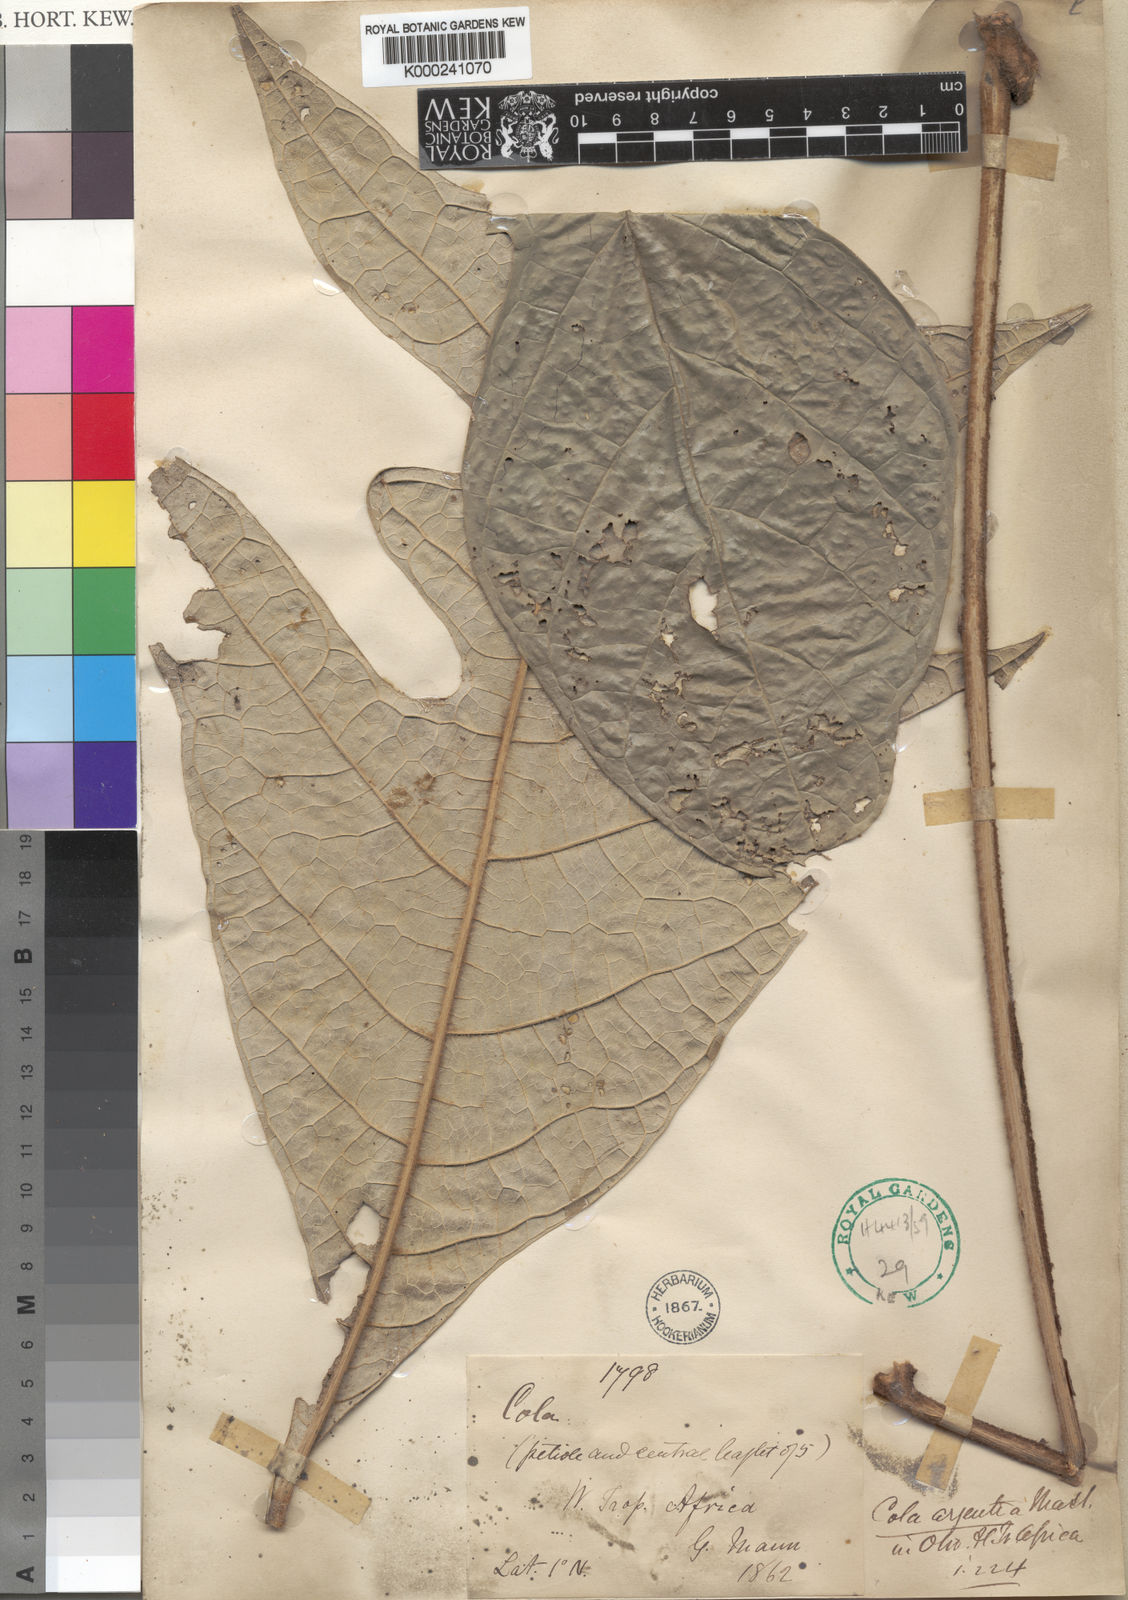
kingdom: Plantae
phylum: Tracheophyta
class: Magnoliopsida
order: Malvales
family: Malvaceae
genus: Cola
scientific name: Cola argentea
